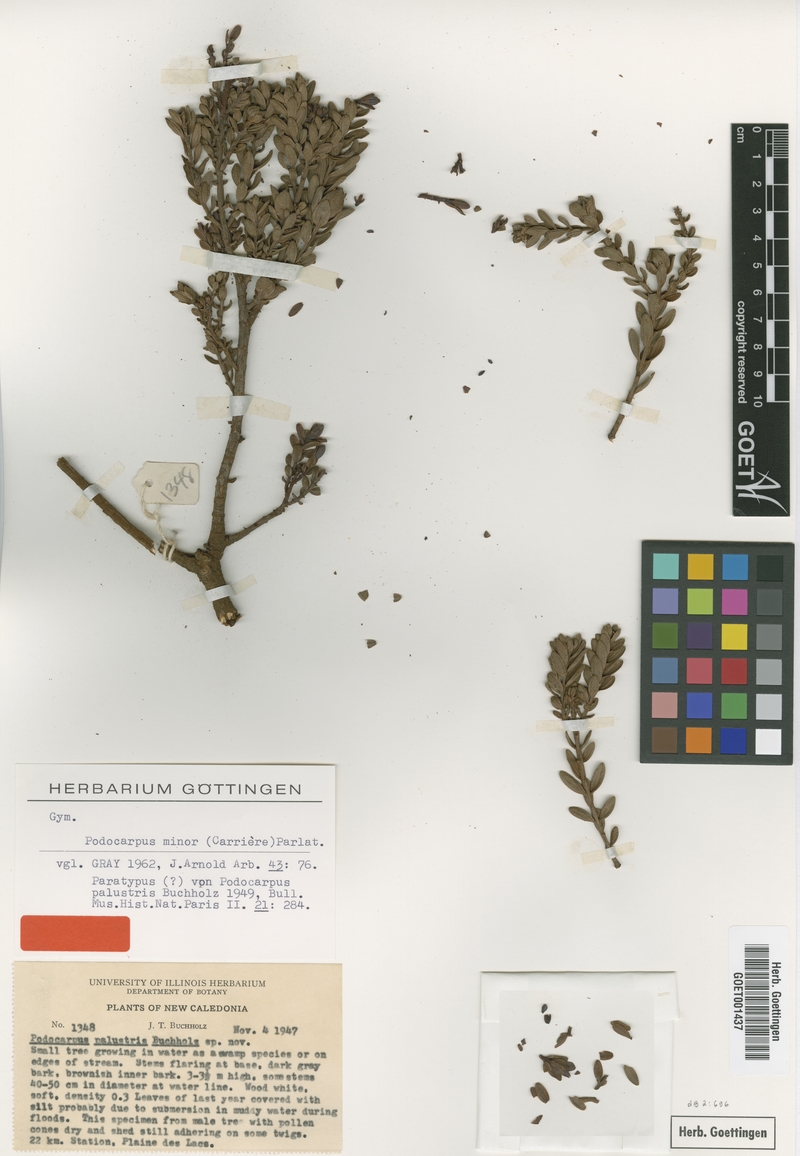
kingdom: Plantae
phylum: Tracheophyta
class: Pinopsida
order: Pinales
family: Podocarpaceae
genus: Retrophyllum
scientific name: Retrophyllum minus
